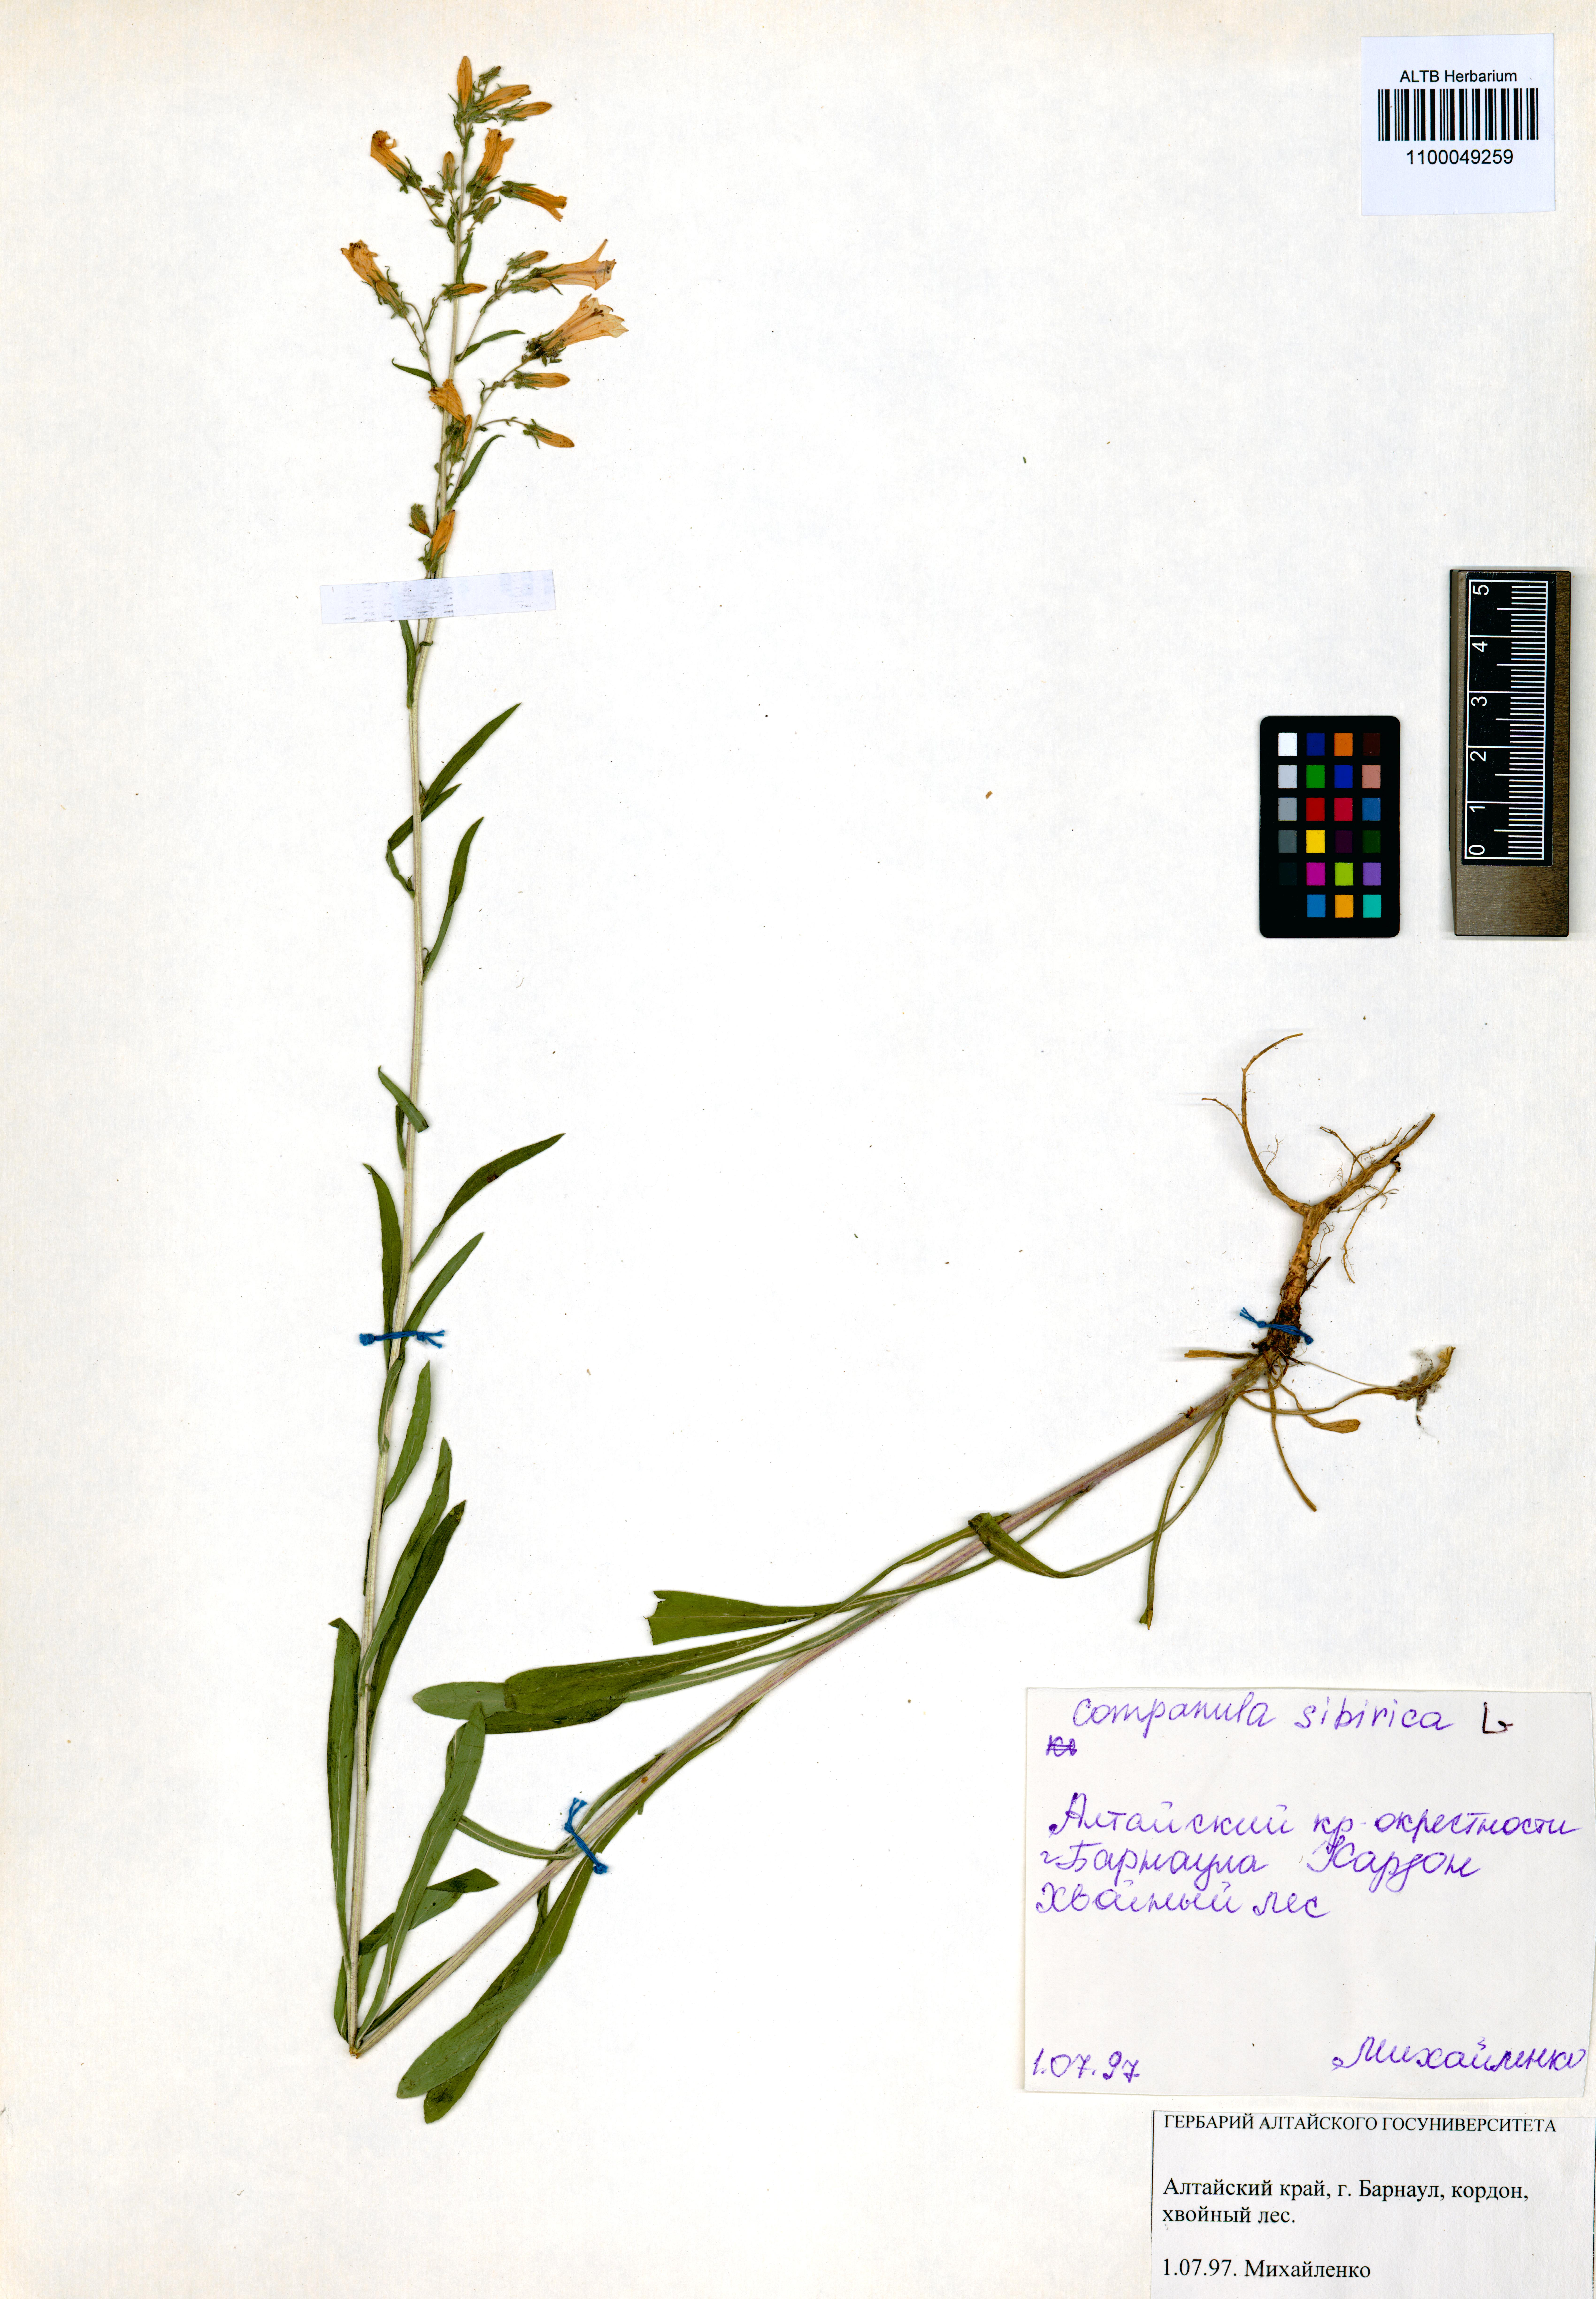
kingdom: Plantae
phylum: Tracheophyta
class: Magnoliopsida
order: Asterales
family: Campanulaceae
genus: Campanula
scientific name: Campanula sibirica
